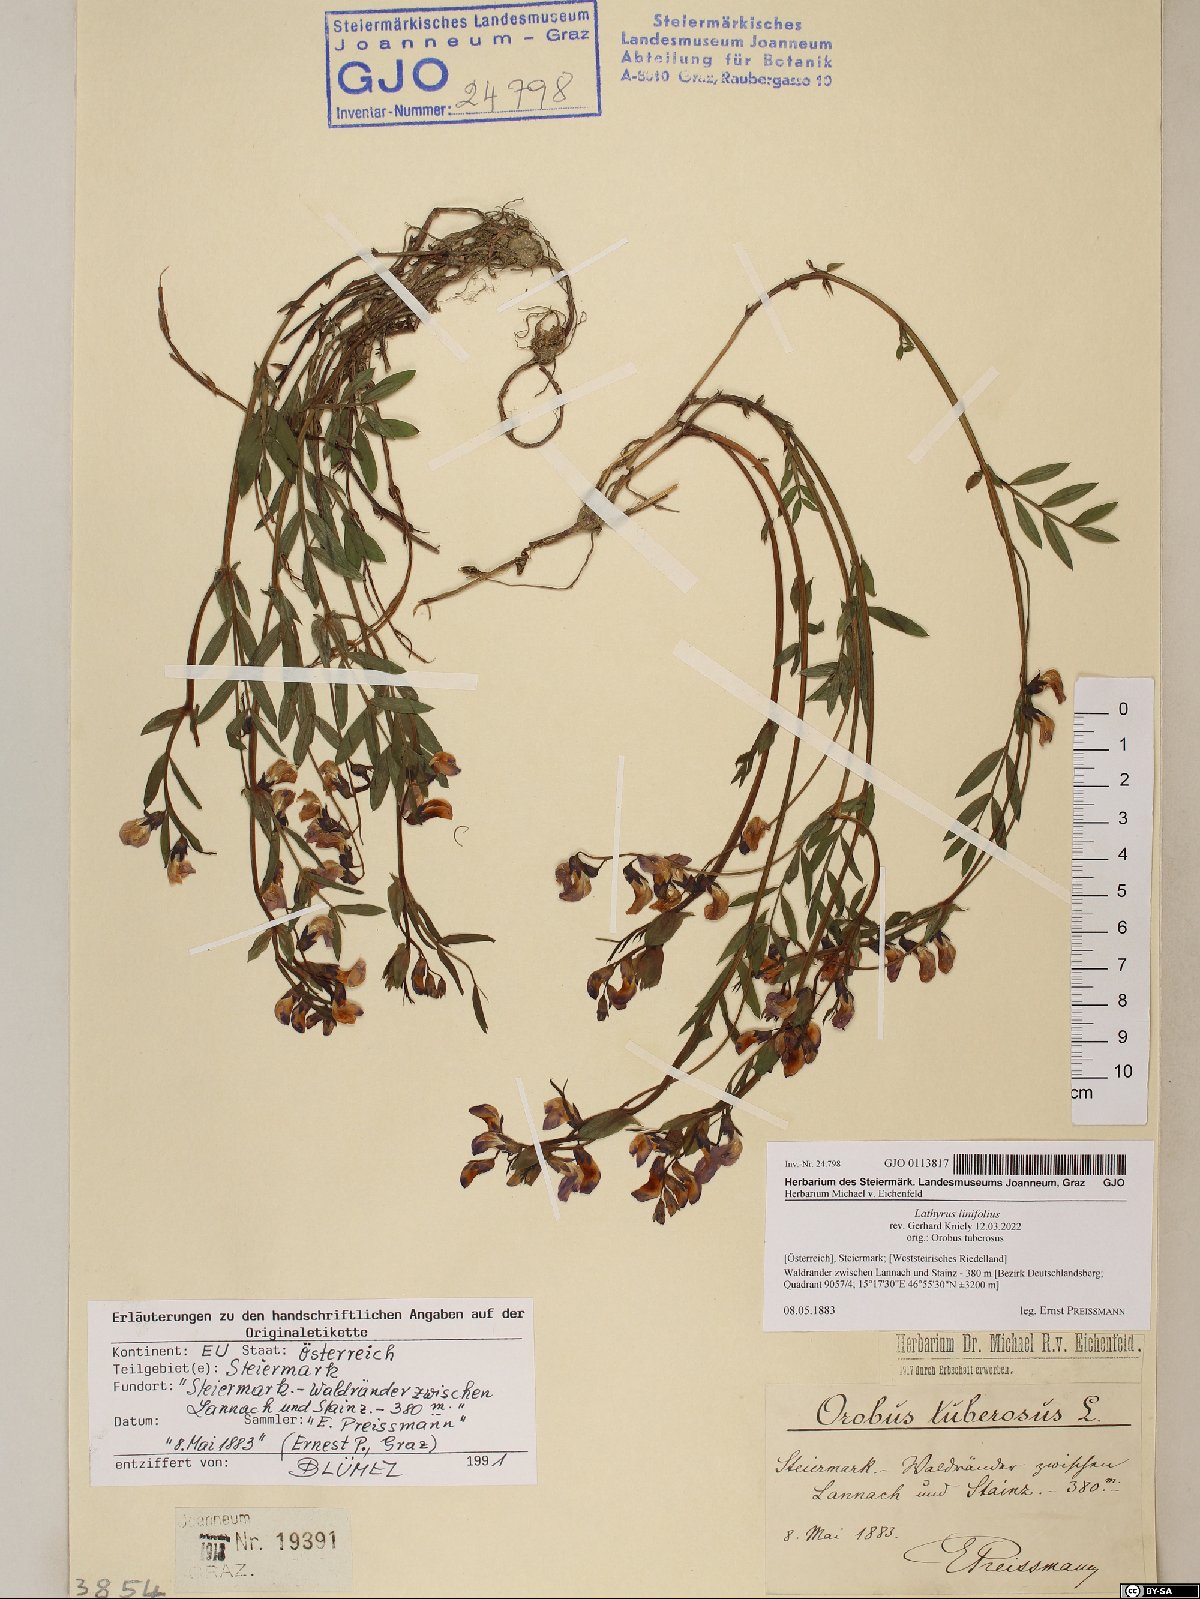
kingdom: Plantae
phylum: Tracheophyta
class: Magnoliopsida
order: Fabales
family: Fabaceae
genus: Lathyrus
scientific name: Lathyrus linifolius
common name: Bitter-vetch
